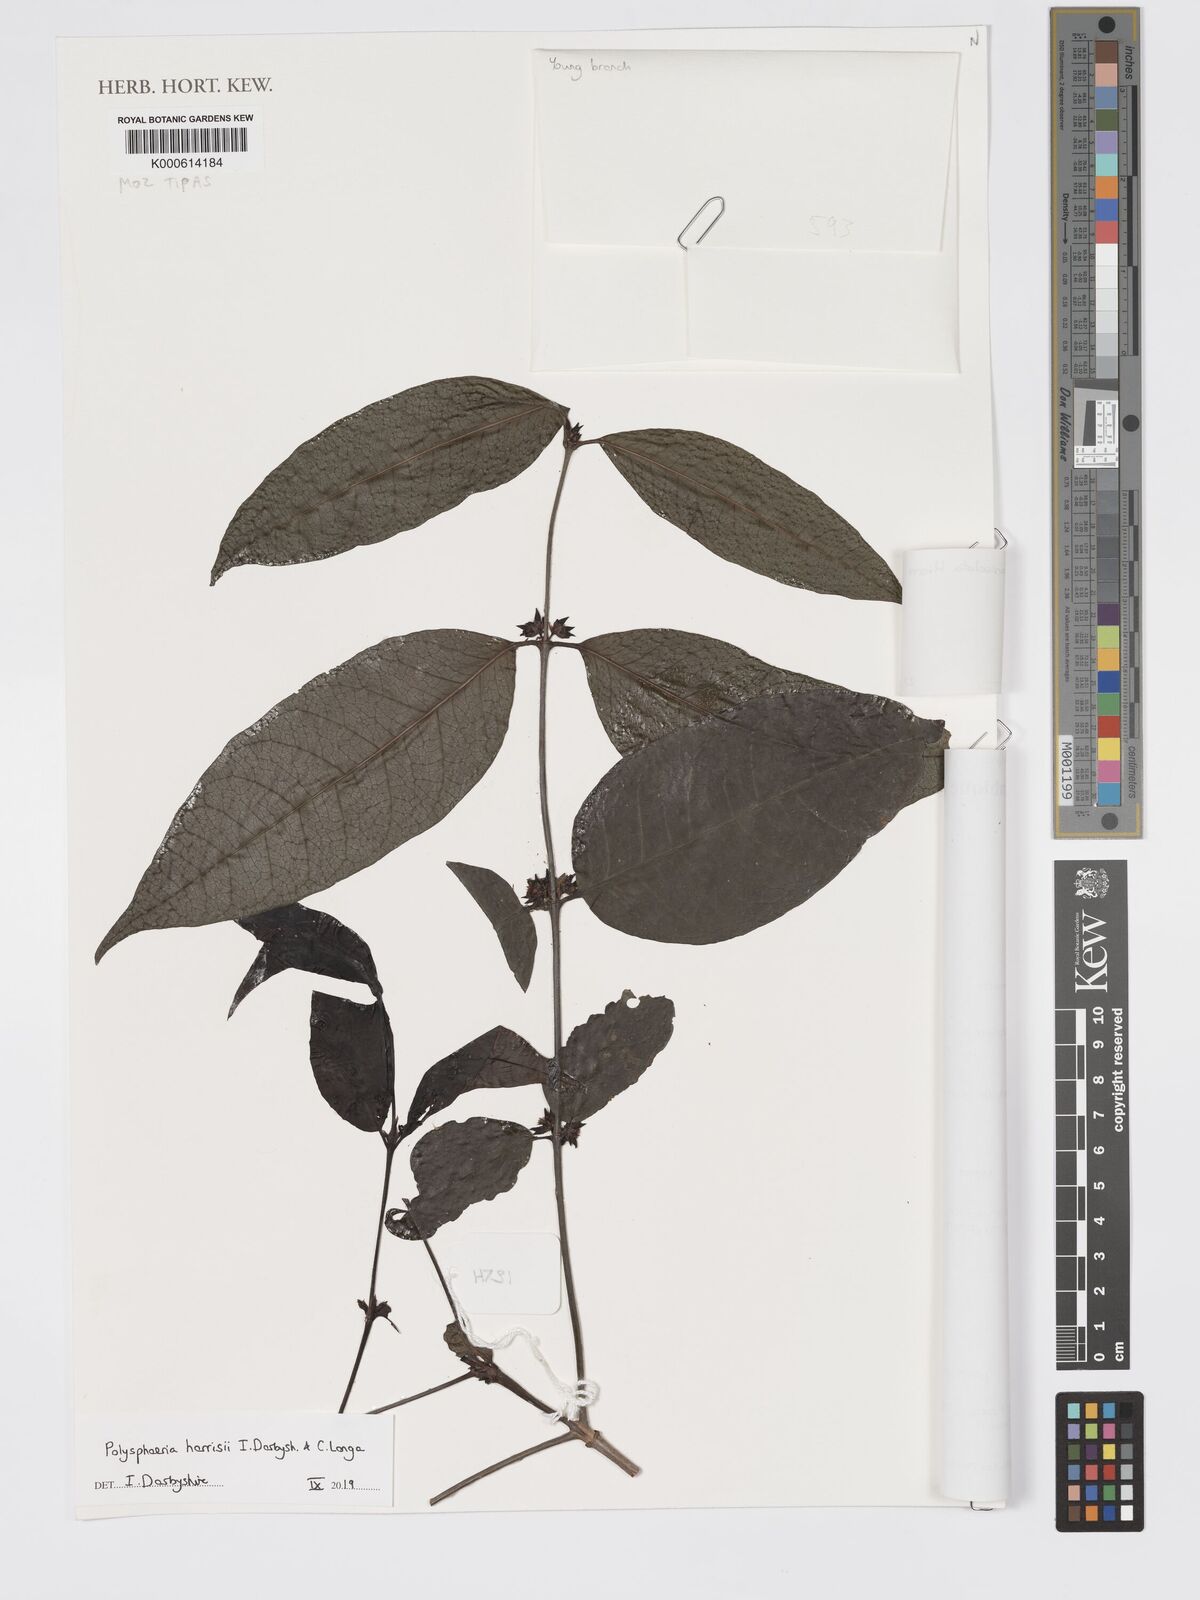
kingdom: Plantae
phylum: Tracheophyta
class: Magnoliopsida
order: Gentianales
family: Rubiaceae
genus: Polysphaeria
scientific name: Polysphaeria lanceolata
